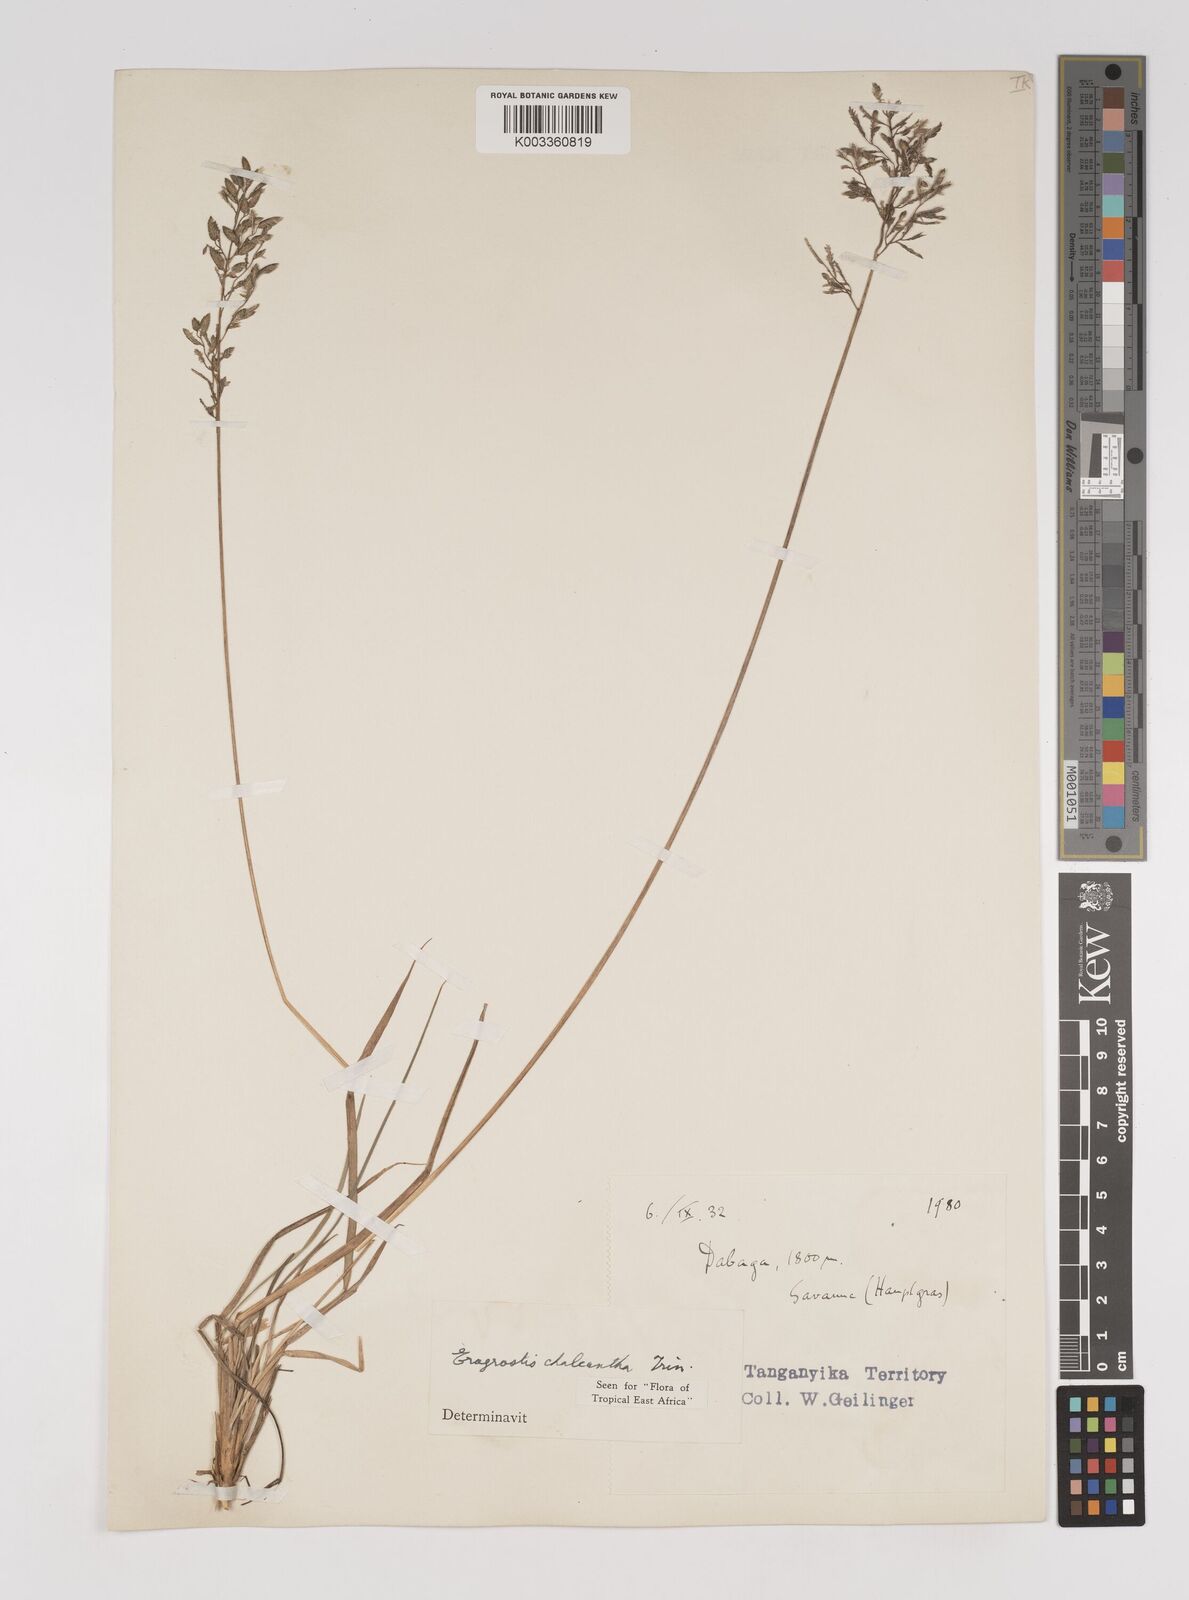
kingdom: Plantae
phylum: Tracheophyta
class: Liliopsida
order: Poales
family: Poaceae
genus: Eragrostis
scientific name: Eragrostis racemosa
